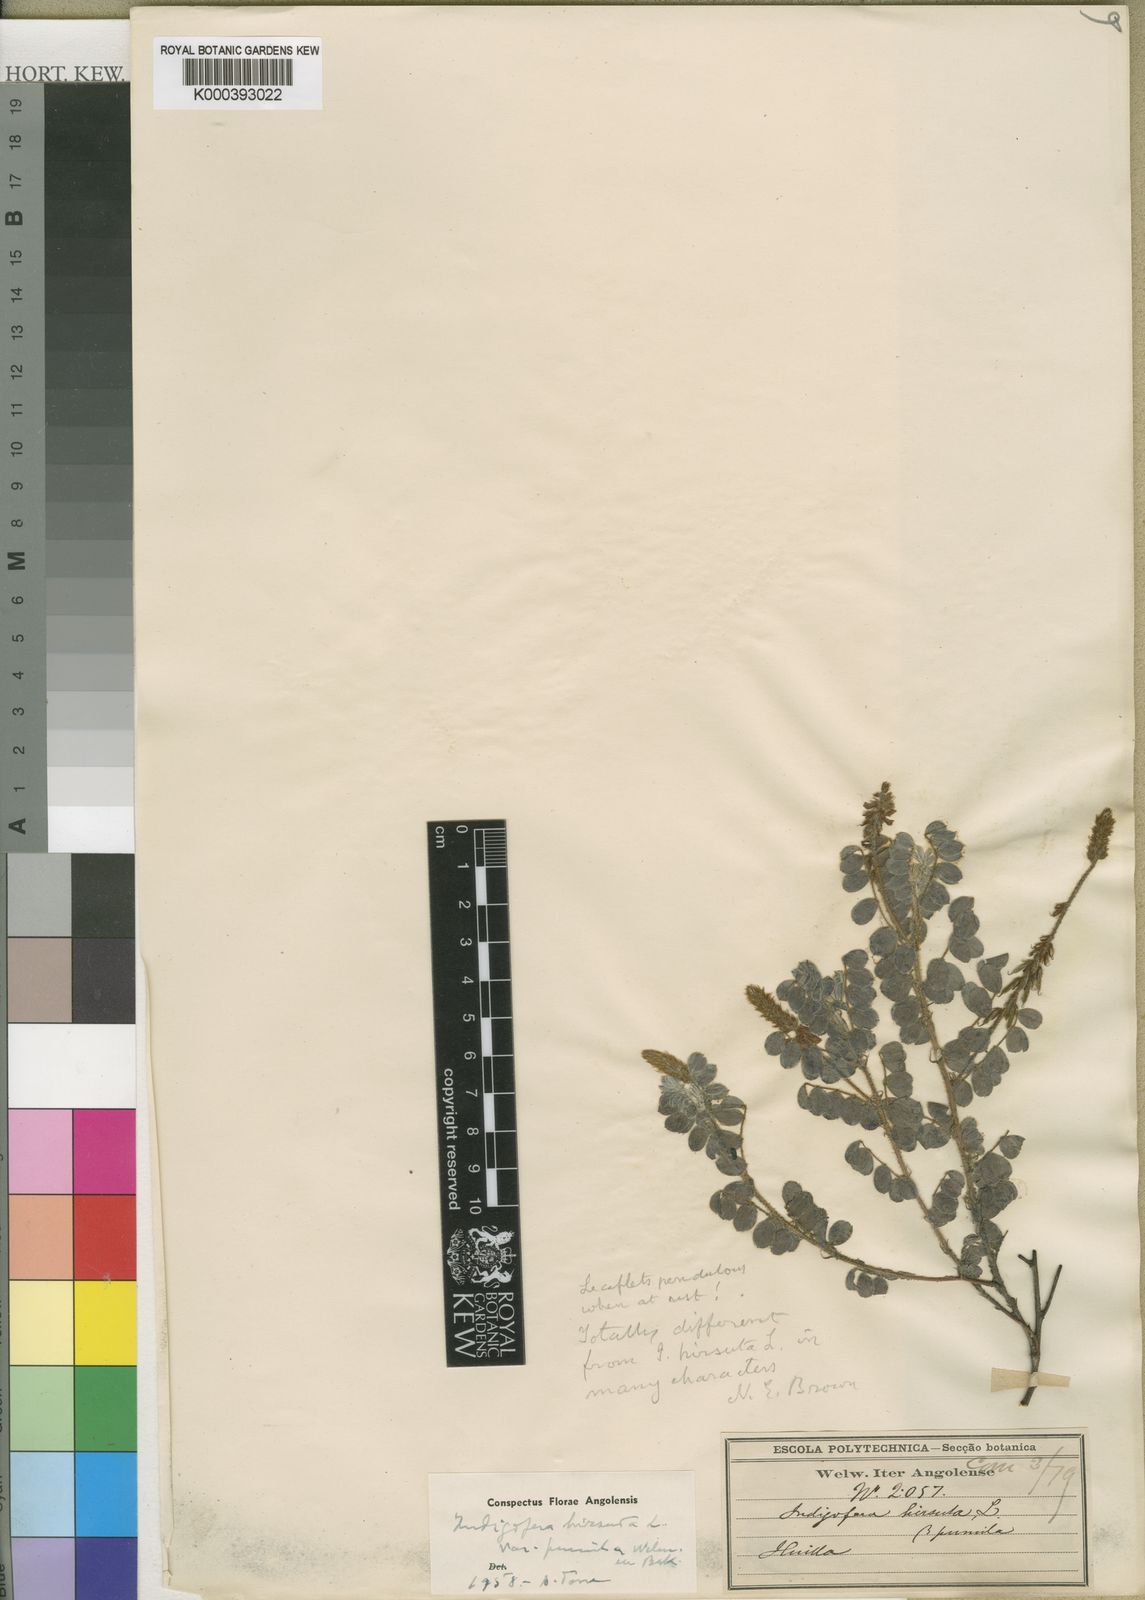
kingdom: Plantae
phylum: Tracheophyta
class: Magnoliopsida
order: Fabales
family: Fabaceae
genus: Indigofera
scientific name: Indigofera hirsuta
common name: Hairy indigo
